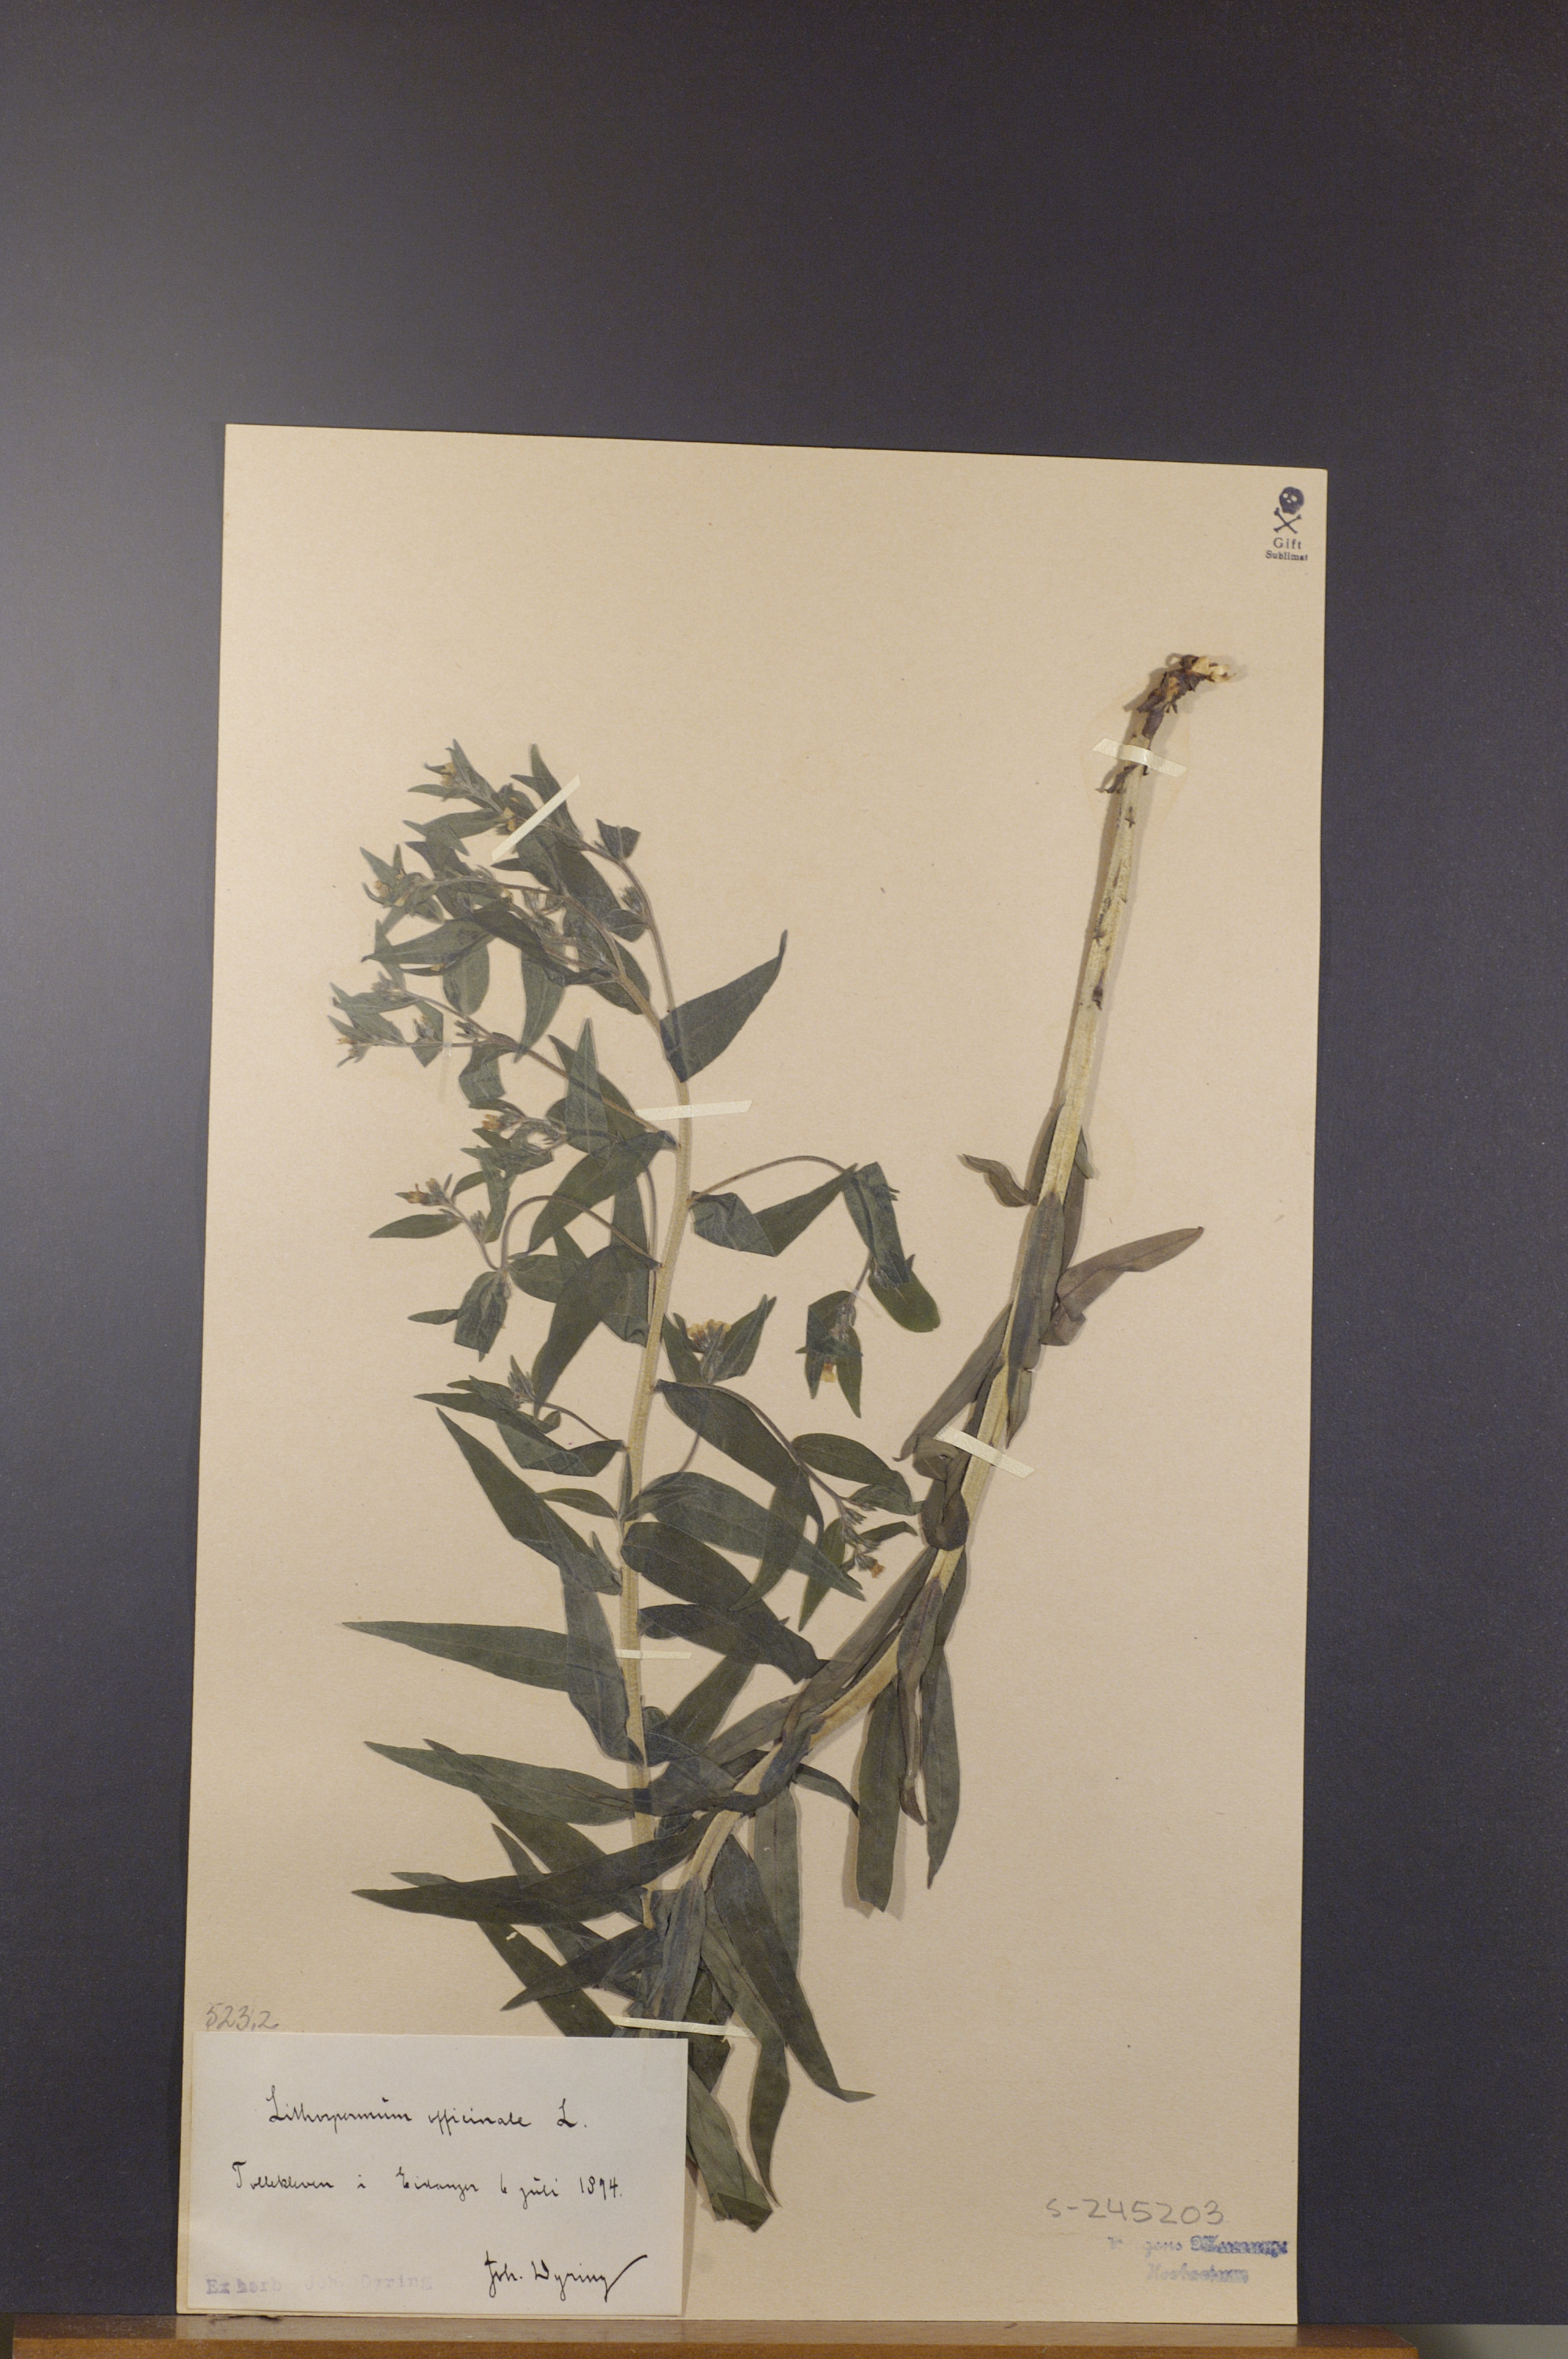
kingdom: Plantae
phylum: Tracheophyta
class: Magnoliopsida
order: Boraginales
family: Boraginaceae
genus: Lithospermum
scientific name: Lithospermum officinale
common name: Common gromwell
